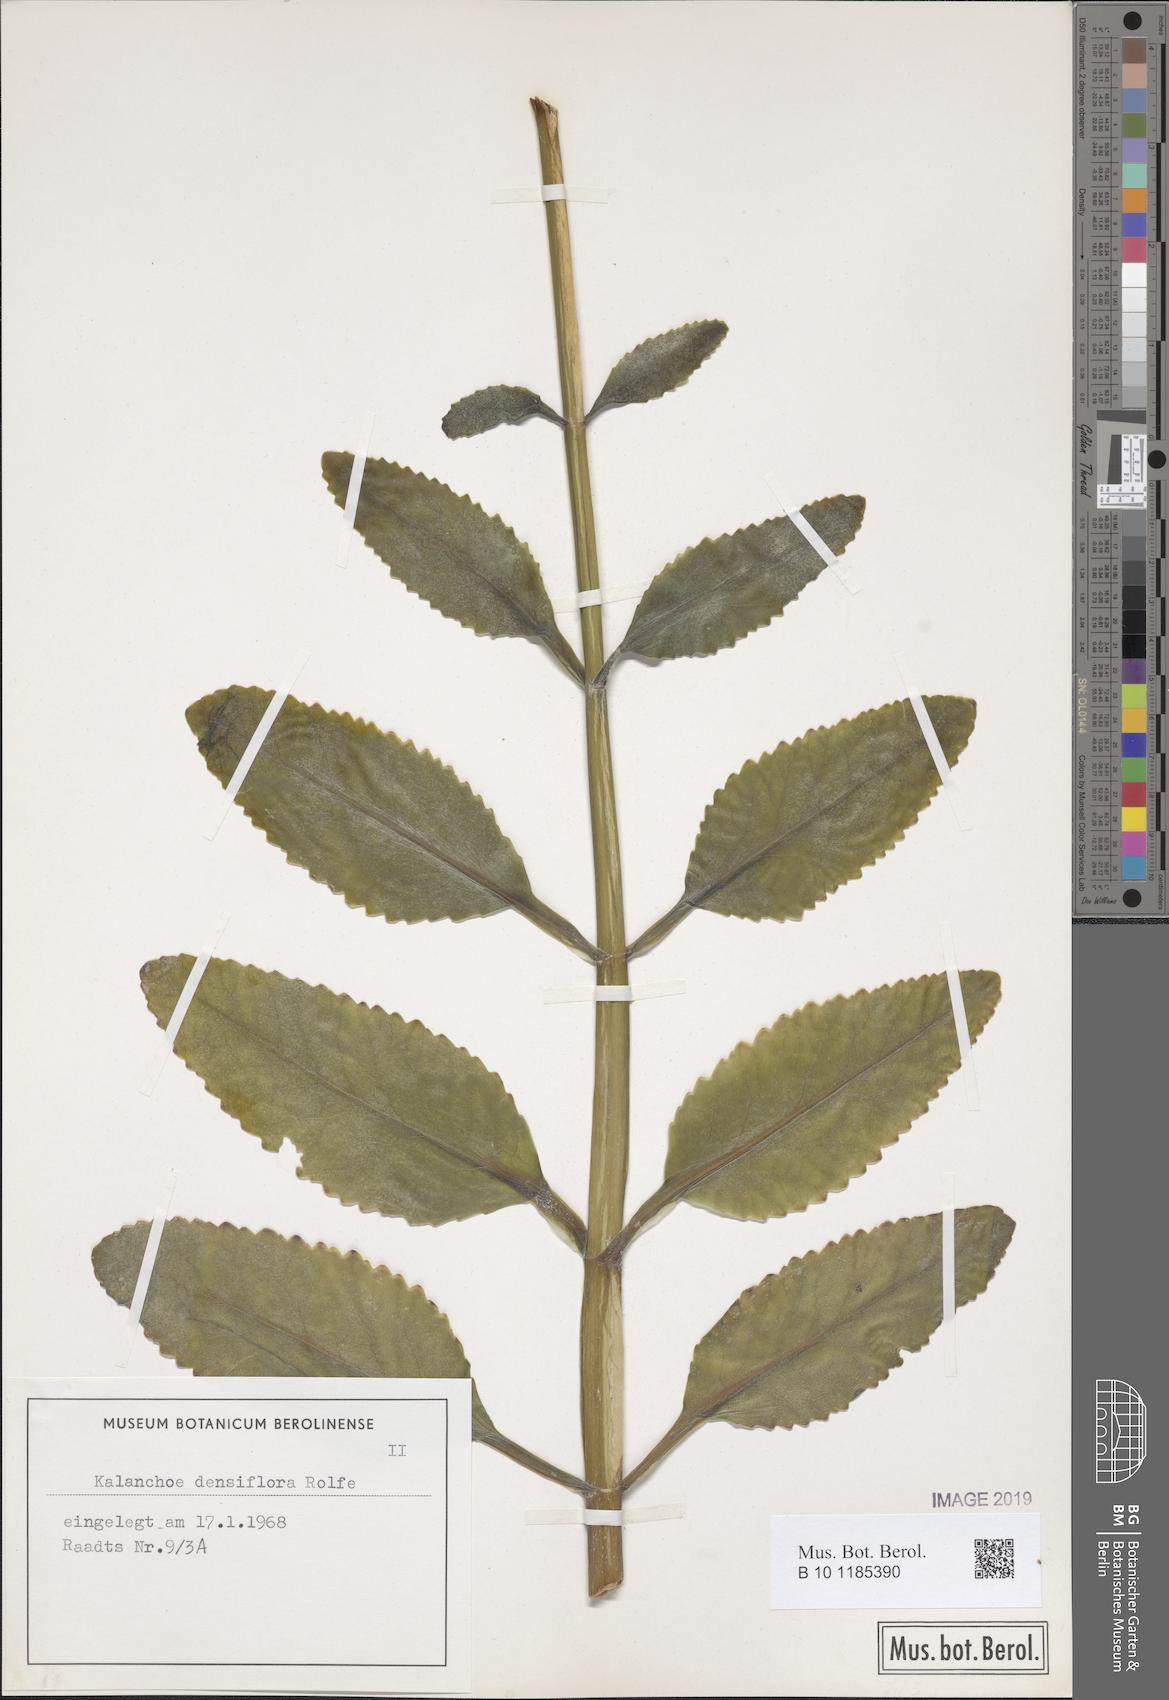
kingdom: Plantae
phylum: Tracheophyta
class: Magnoliopsida
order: Saxifragales
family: Crassulaceae
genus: Kalanchoe
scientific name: Kalanchoe densiflora
